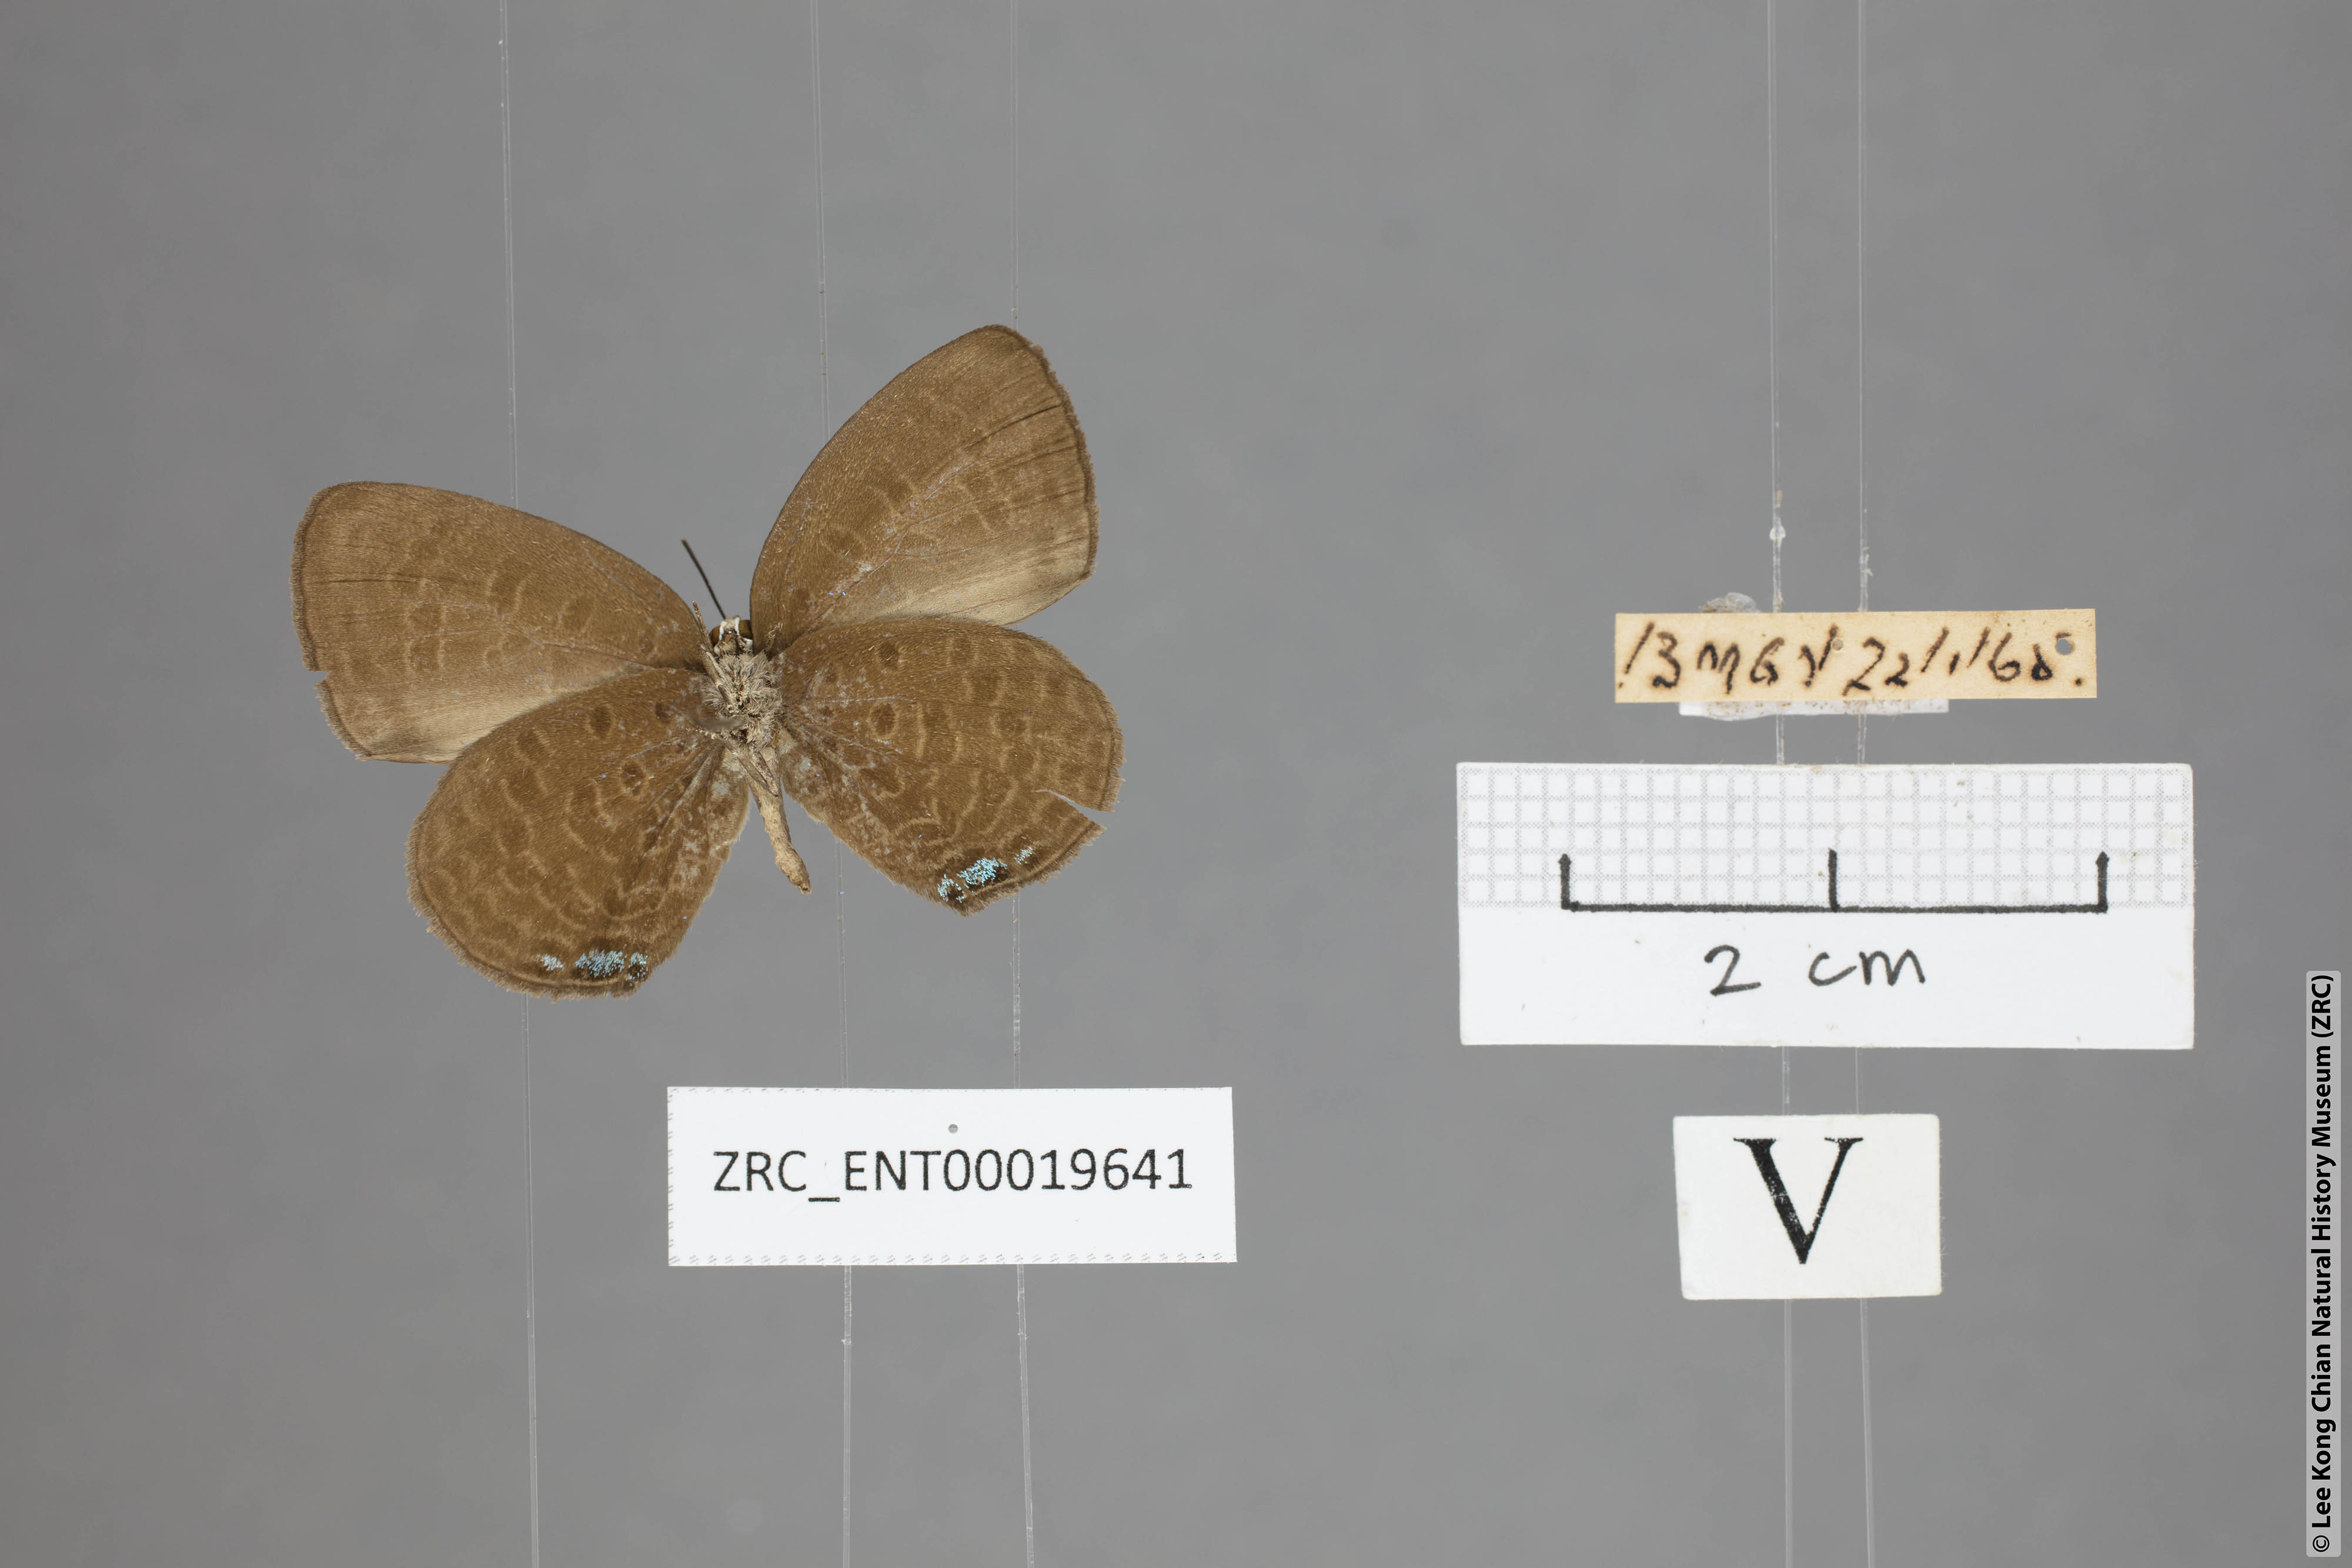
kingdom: Animalia
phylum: Arthropoda
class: Insecta
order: Lepidoptera
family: Lycaenidae
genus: Arhopala
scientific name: Arhopala metamuta
